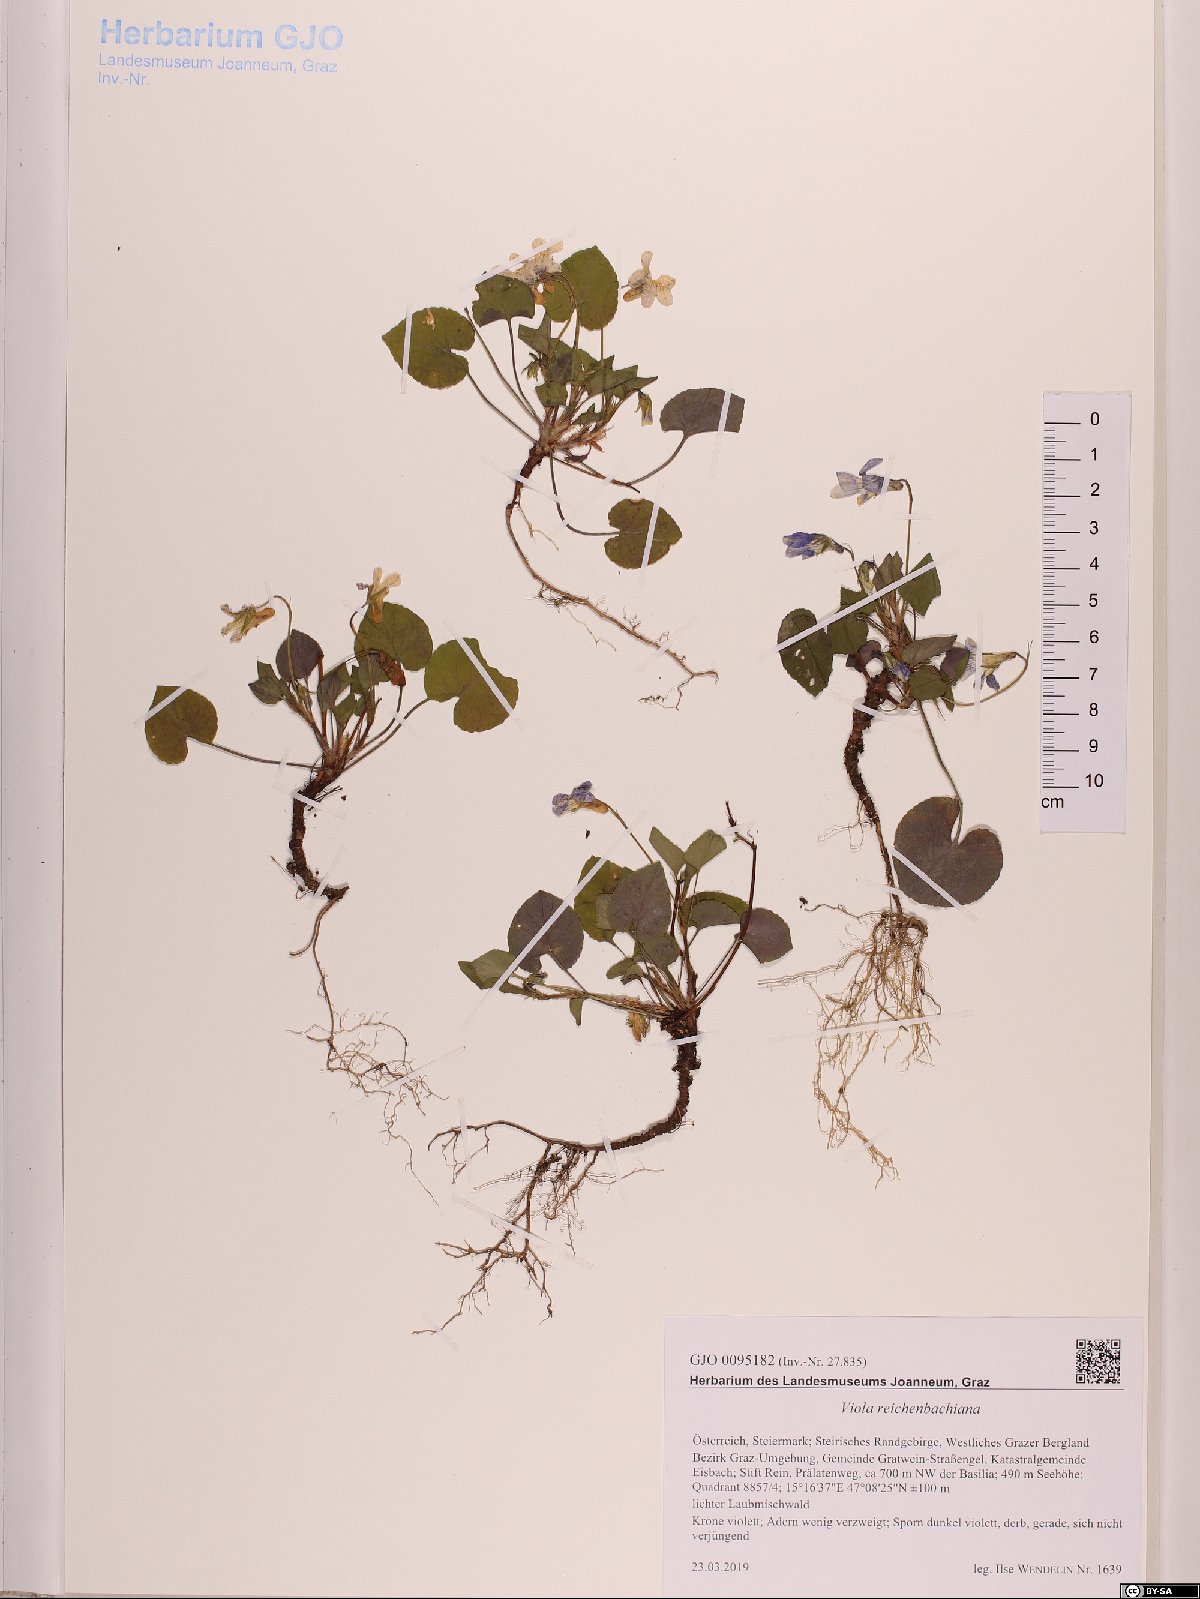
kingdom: Plantae
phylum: Tracheophyta
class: Magnoliopsida
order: Malpighiales
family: Violaceae
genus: Viola
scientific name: Viola reichenbachiana
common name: Early dog-violet
